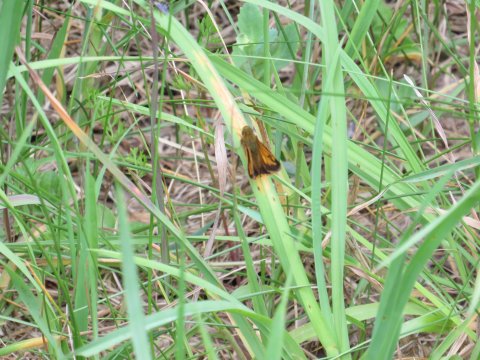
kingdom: Animalia
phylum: Arthropoda
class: Insecta
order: Lepidoptera
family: Hesperiidae
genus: Lon
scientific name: Lon hobomok
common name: Hobomok Skipper
